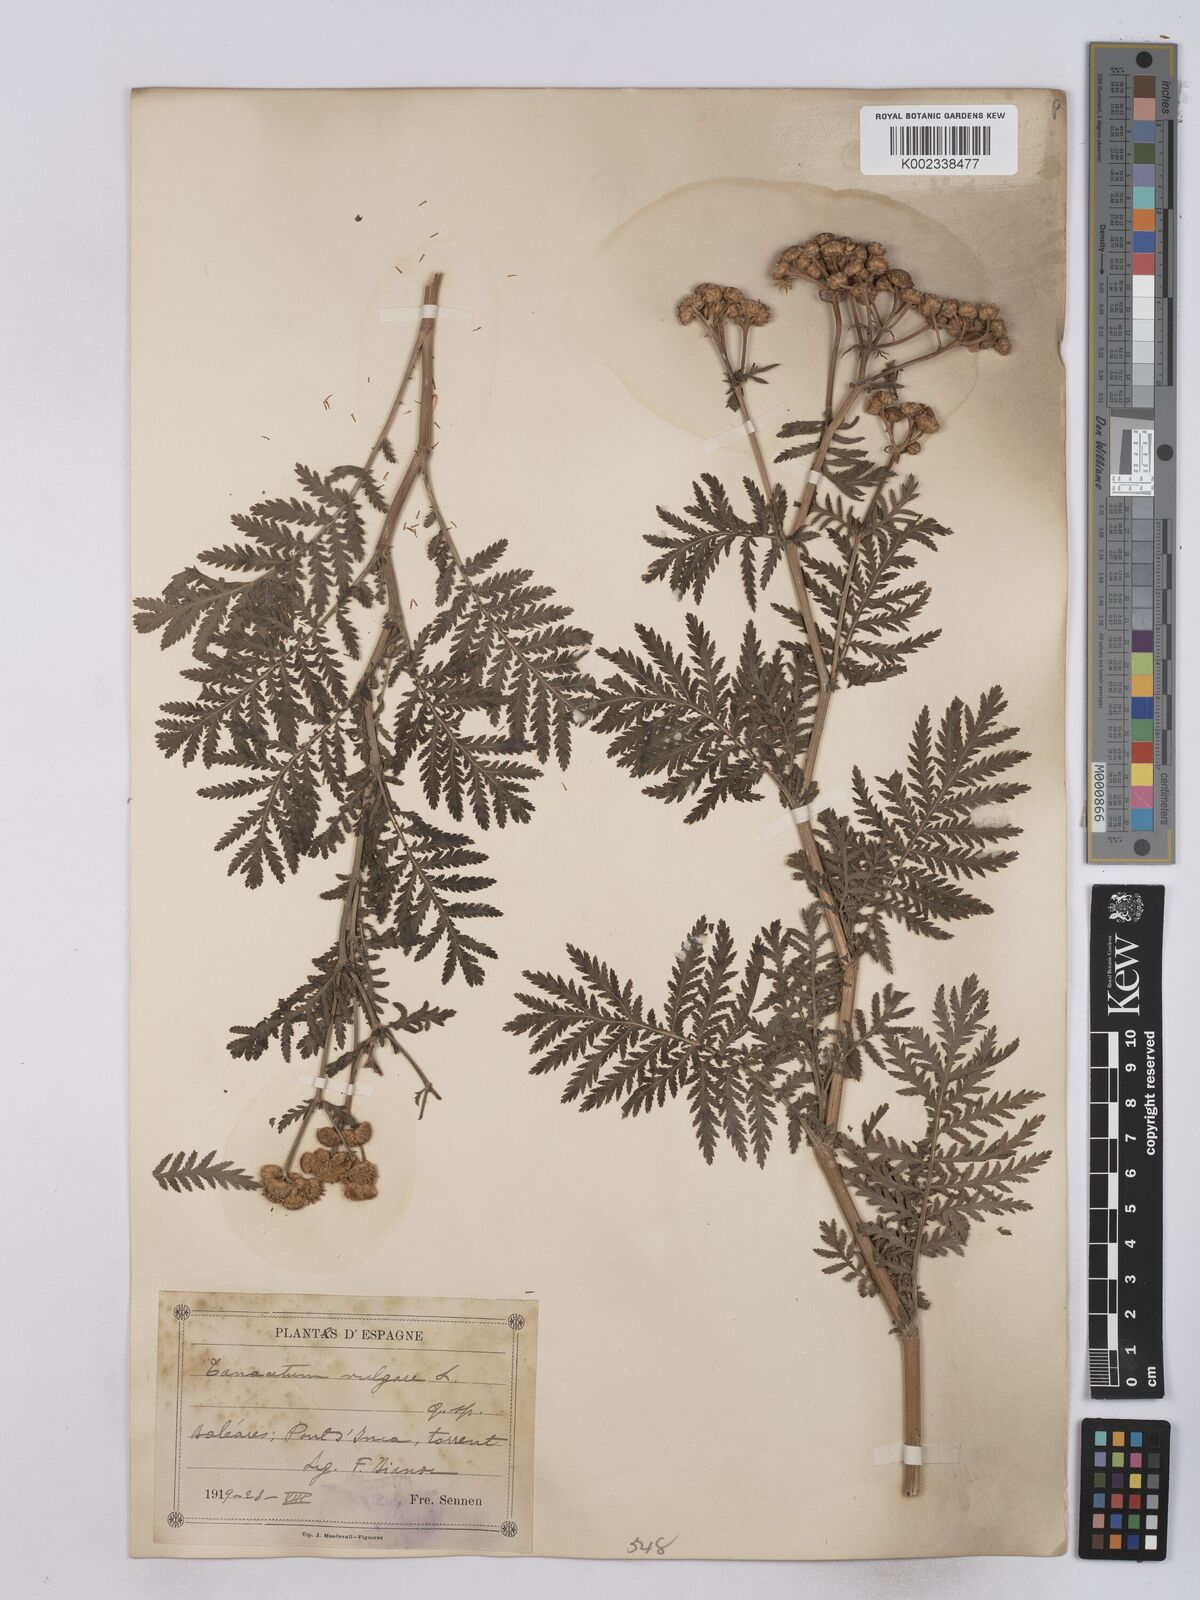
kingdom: Plantae
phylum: Tracheophyta
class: Magnoliopsida
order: Asterales
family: Asteraceae
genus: Tanacetum
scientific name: Tanacetum vulgare
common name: Common tansy
